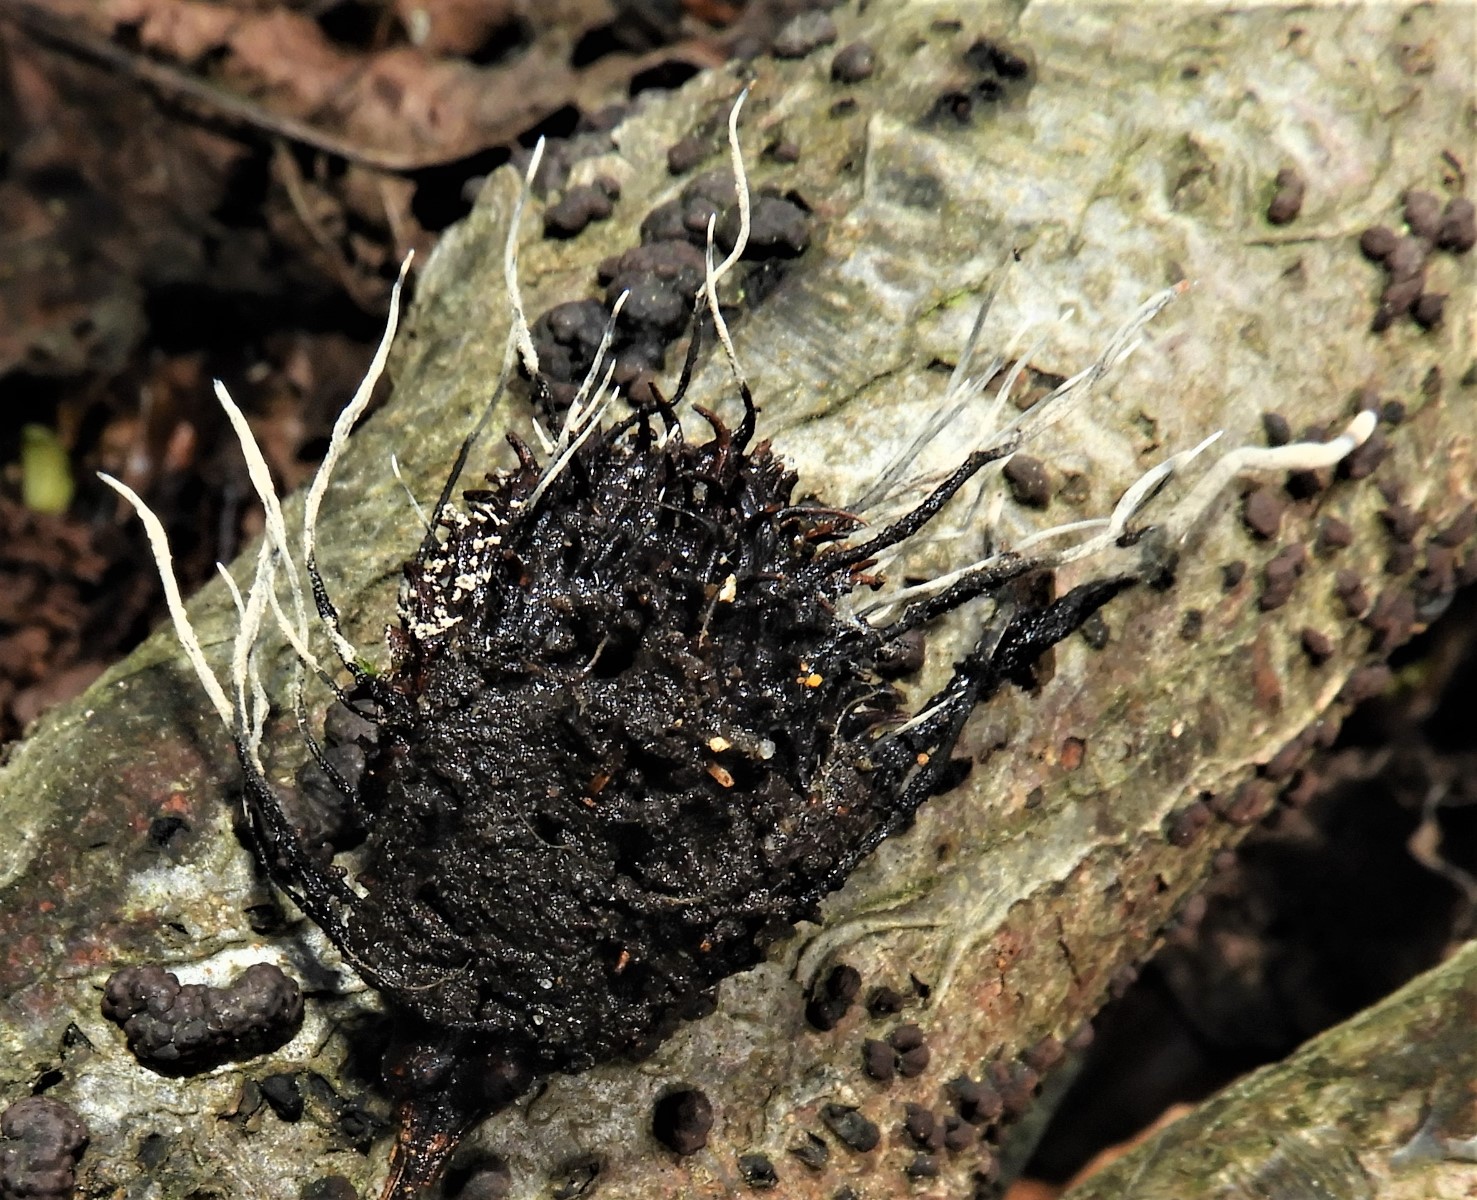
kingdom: Fungi
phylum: Ascomycota
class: Sordariomycetes
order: Xylariales
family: Xylariaceae
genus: Xylaria
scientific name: Xylaria carpophila
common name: bogskål-stødsvamp
